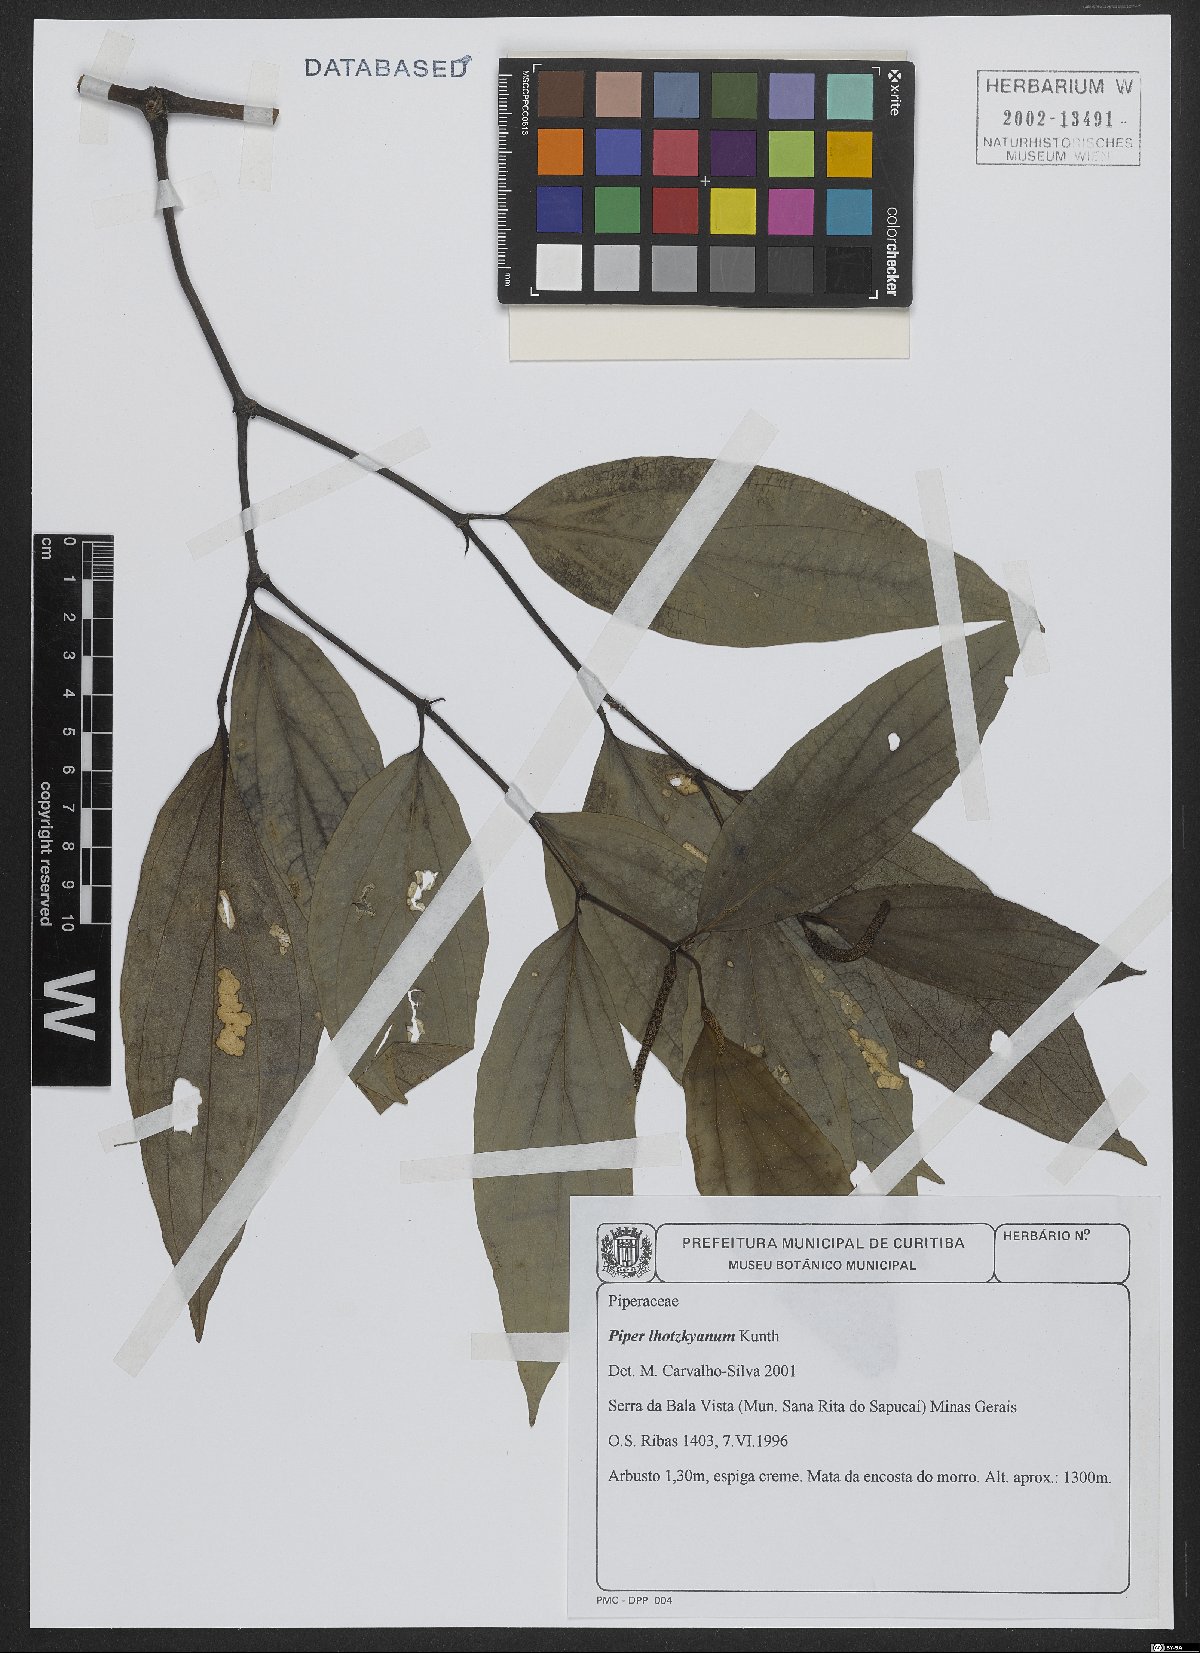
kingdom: Plantae
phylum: Tracheophyta
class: Magnoliopsida
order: Piperales
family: Piperaceae
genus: Piper
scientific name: Piper lhotzkyanum
